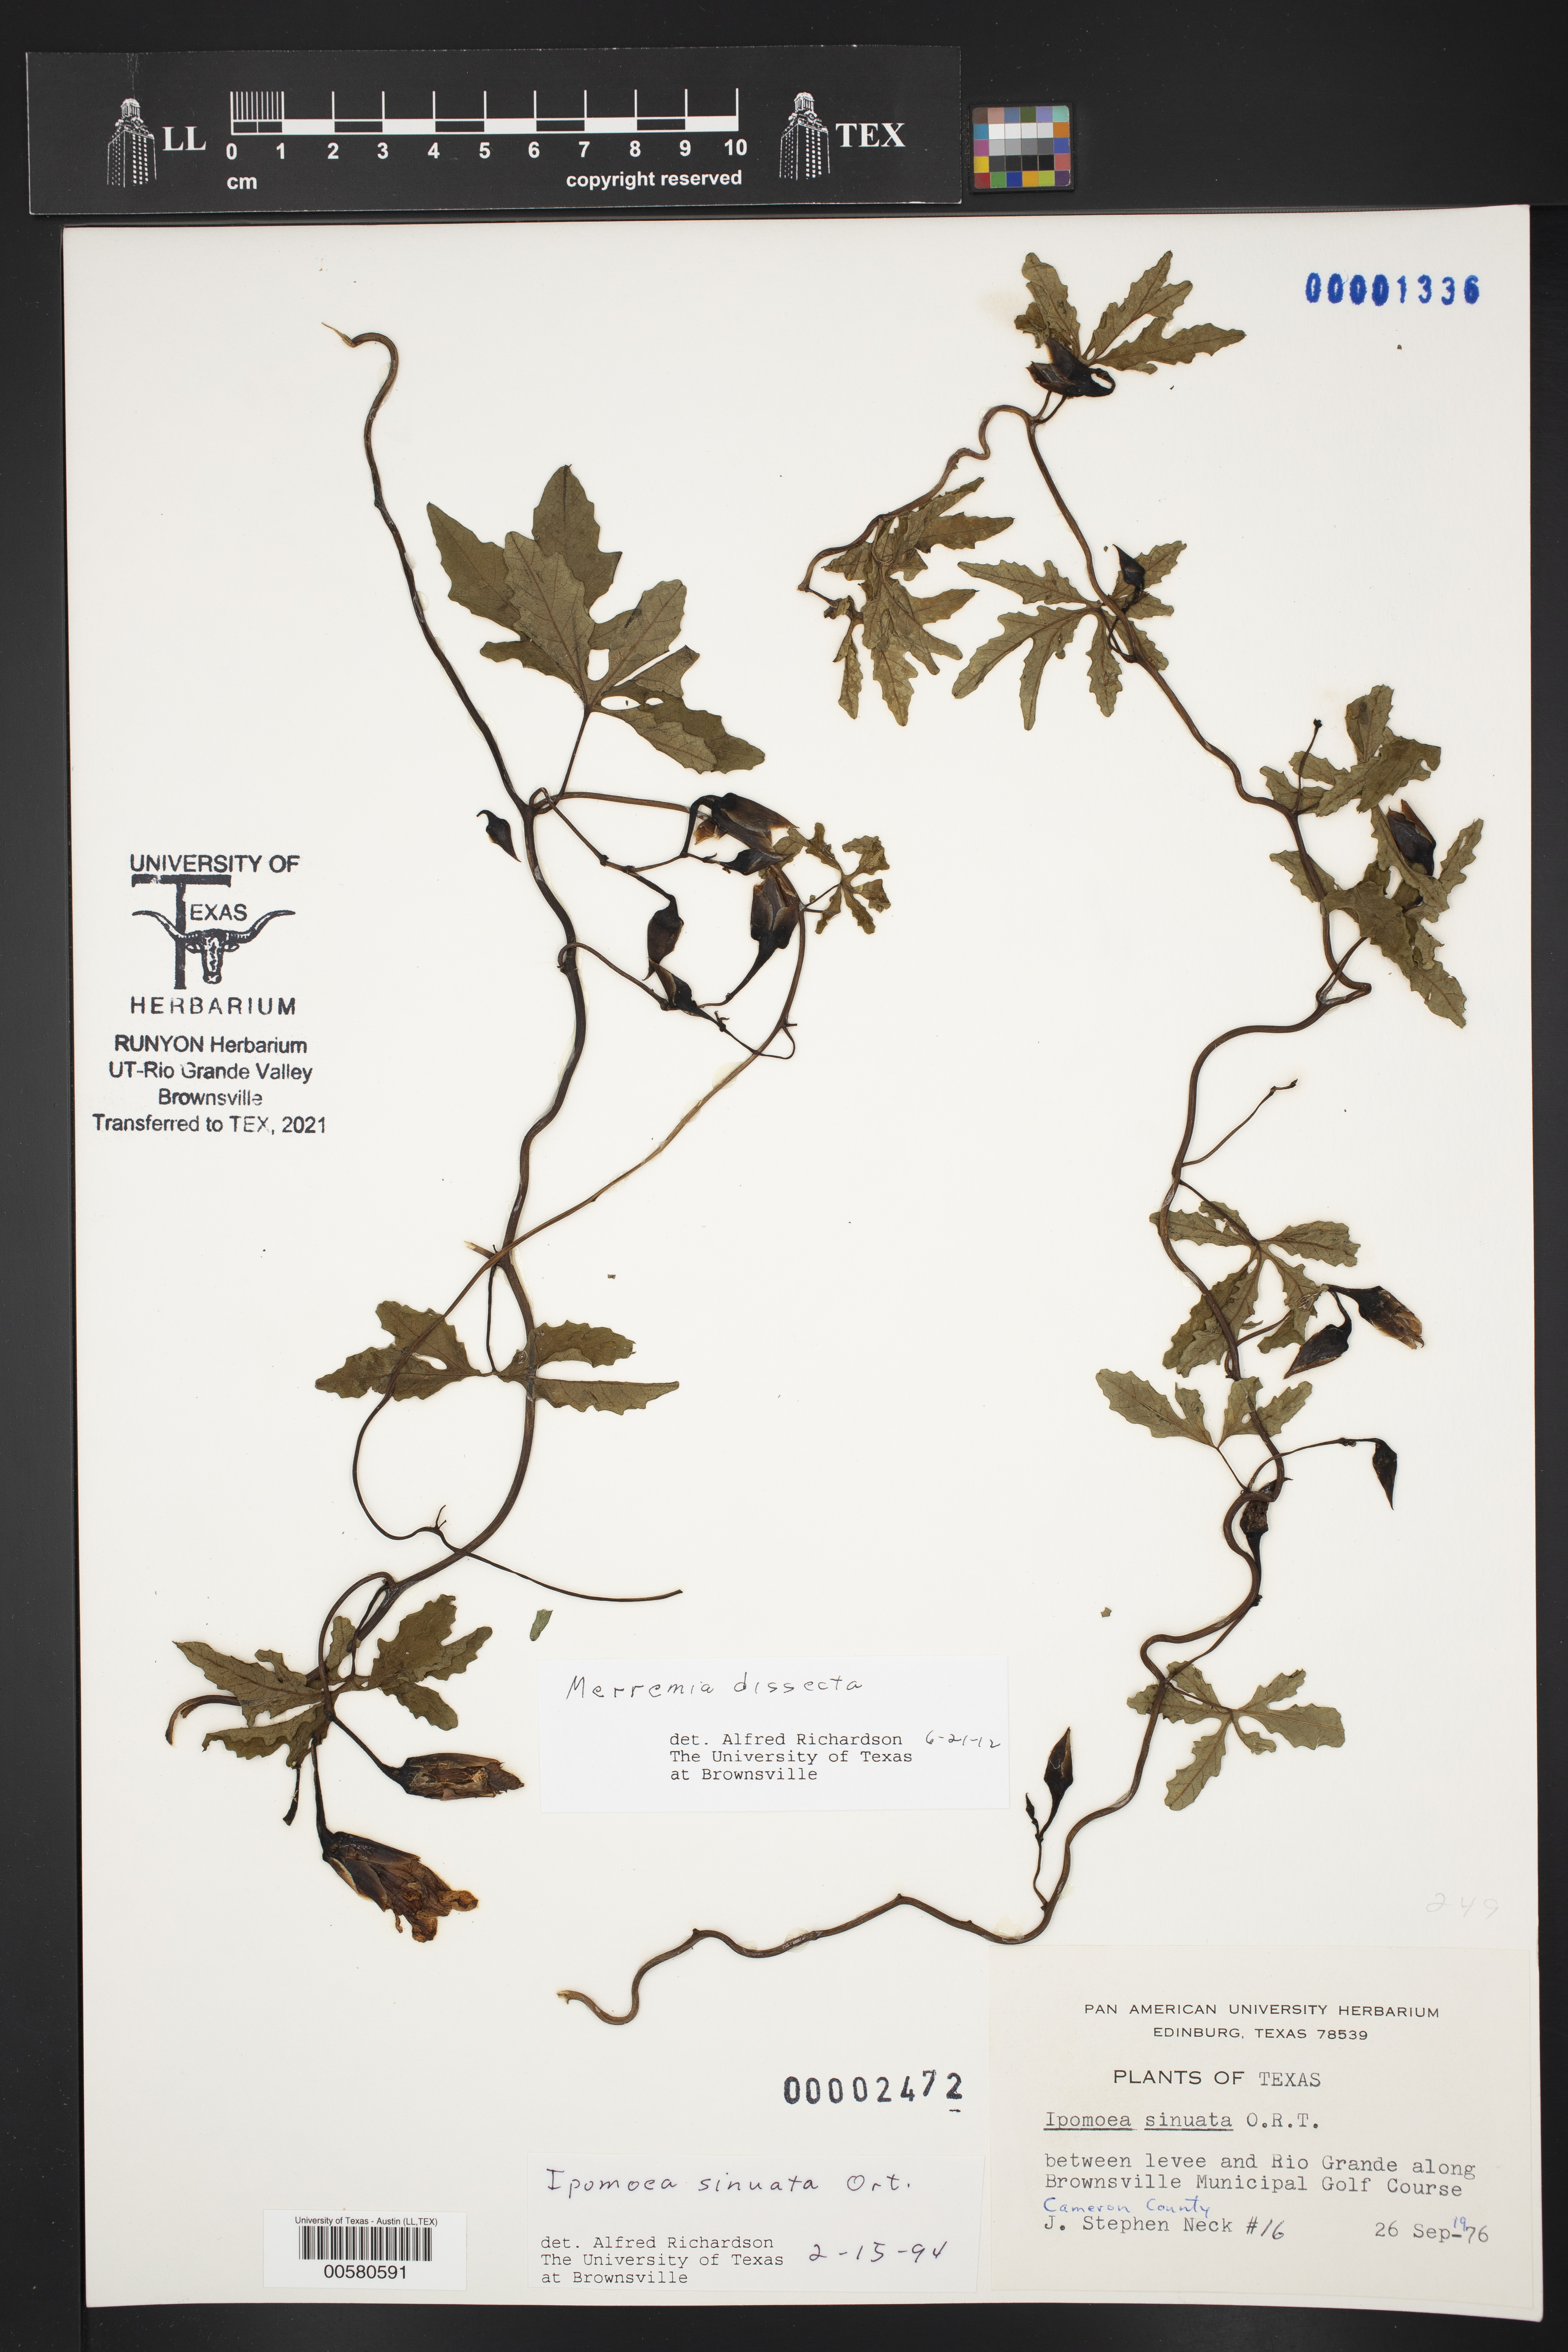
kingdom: Plantae
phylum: Tracheophyta
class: Magnoliopsida
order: Solanales
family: Convolvulaceae
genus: Distimake
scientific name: Distimake dissectus
